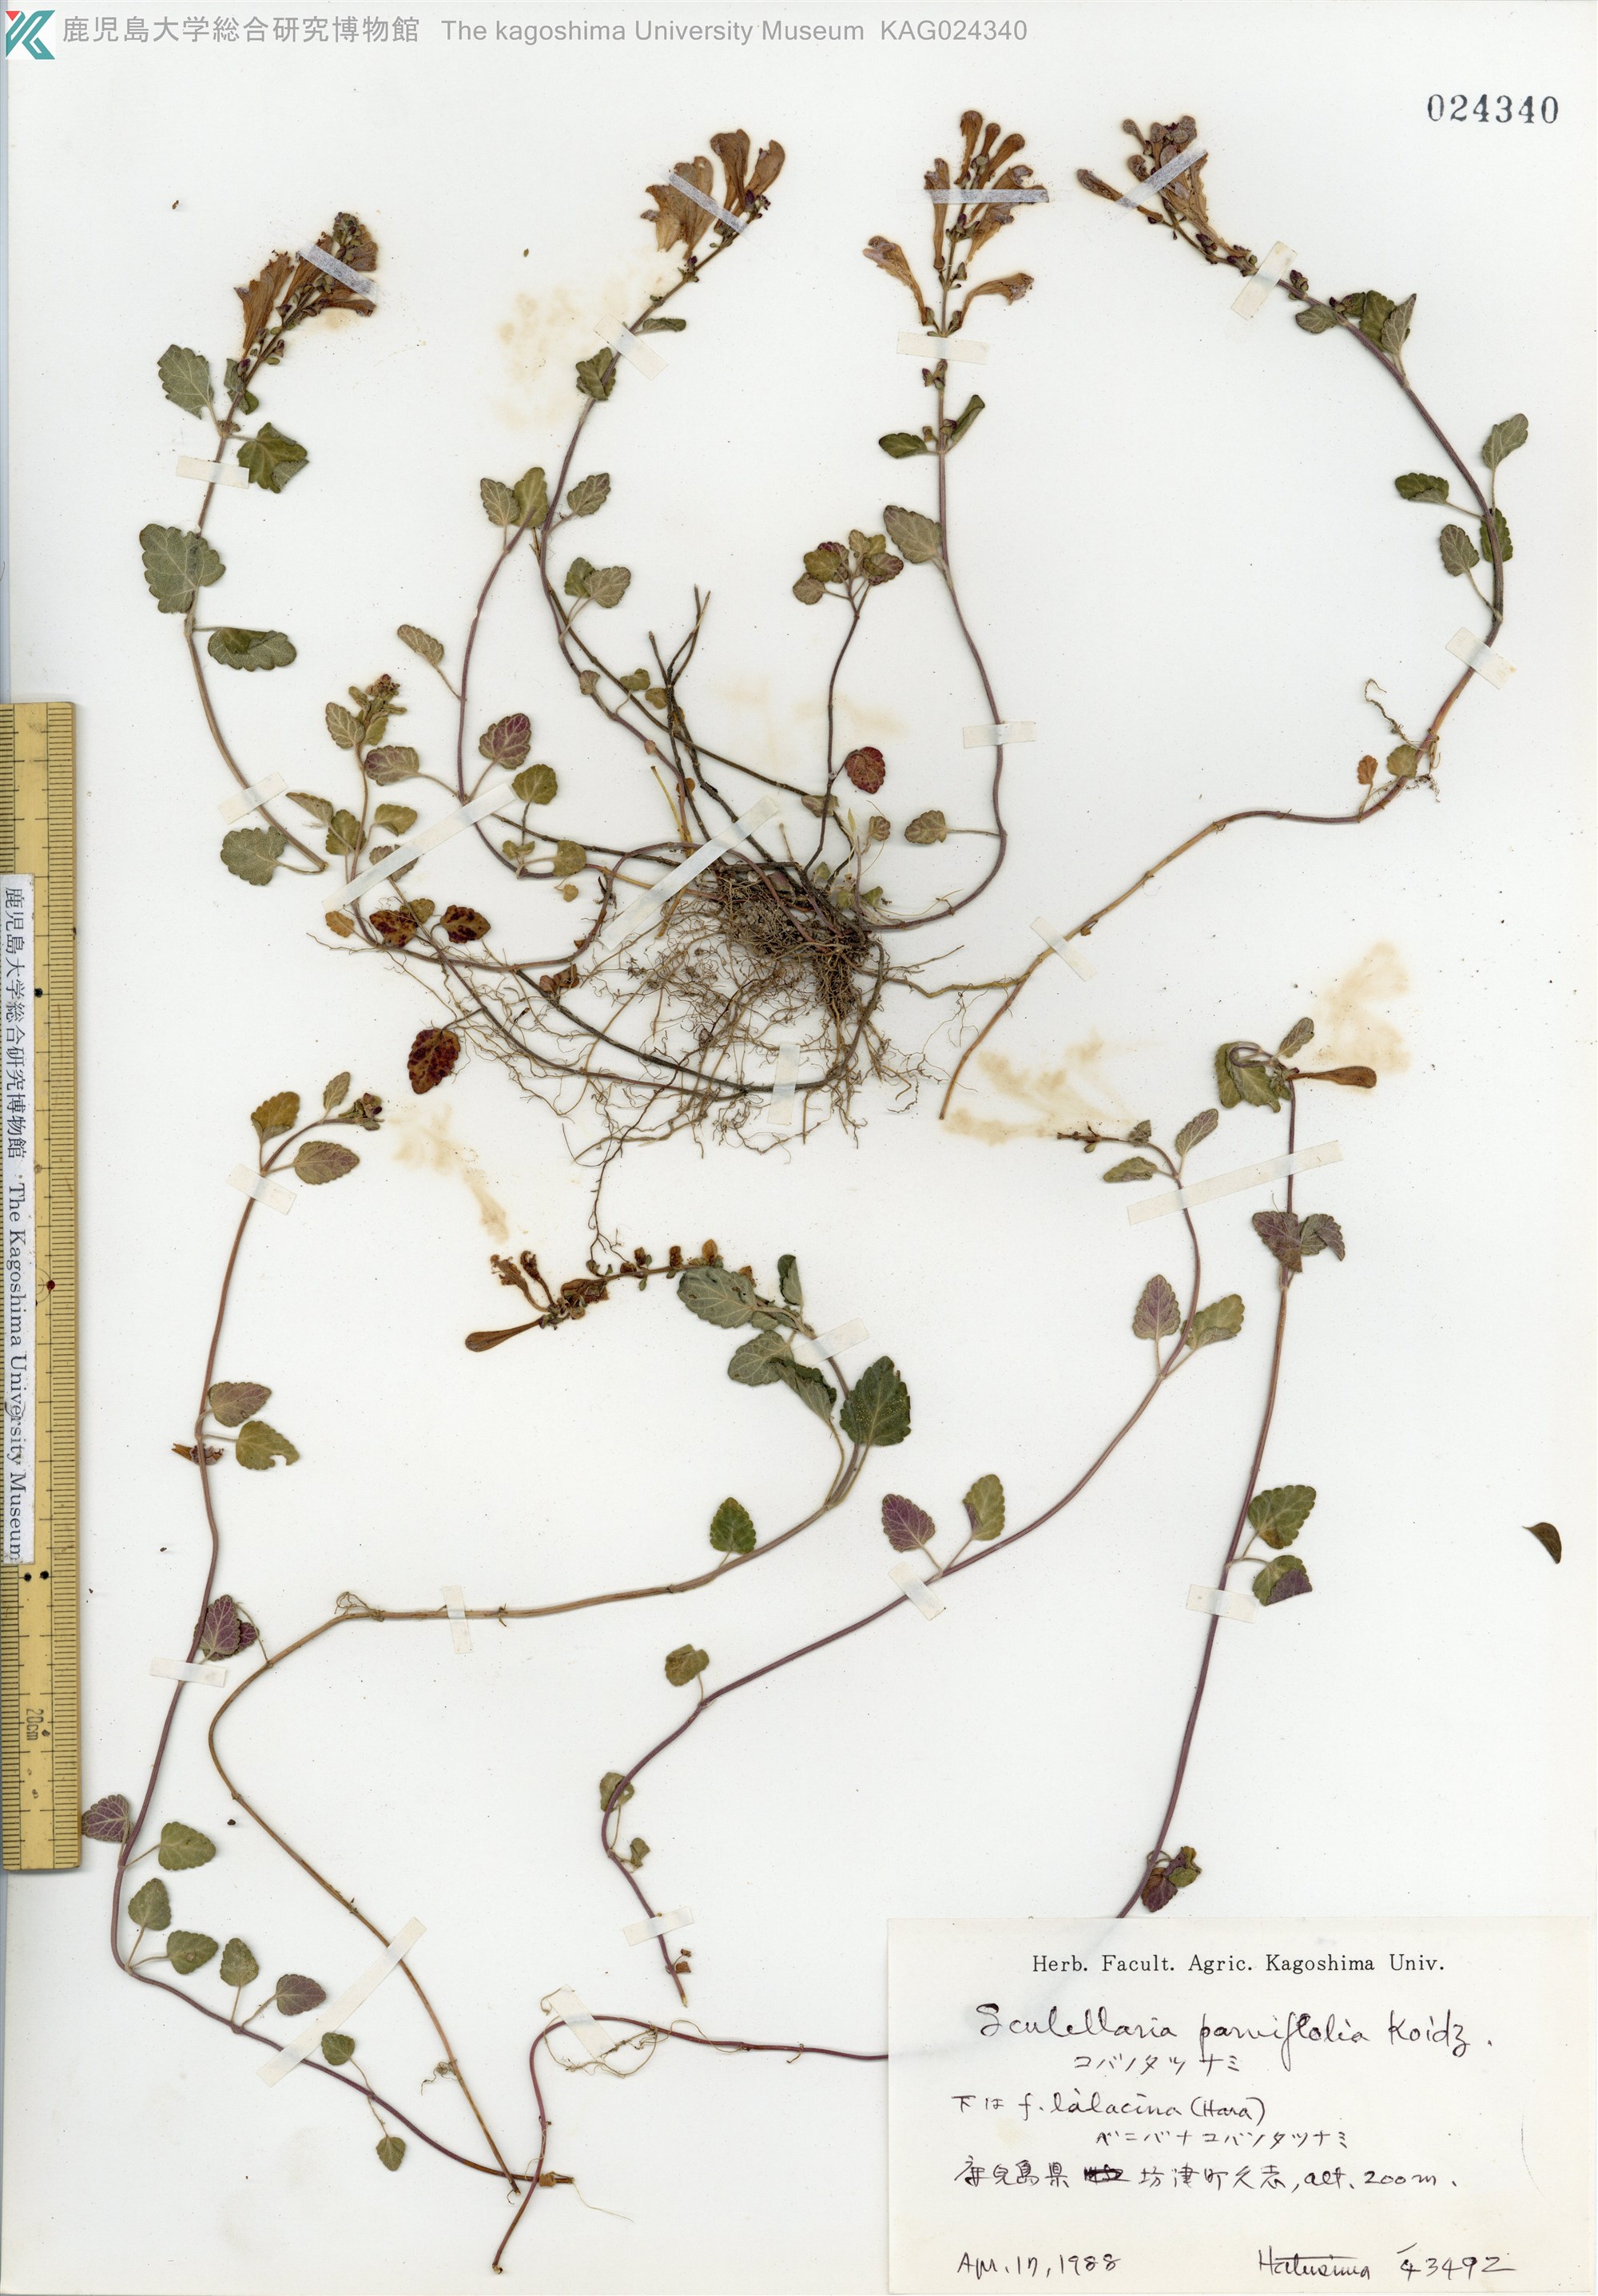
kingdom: Plantae
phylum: Tracheophyta
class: Magnoliopsida
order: Lamiales
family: Lamiaceae
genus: Scutellaria
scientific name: Scutellaria indica
